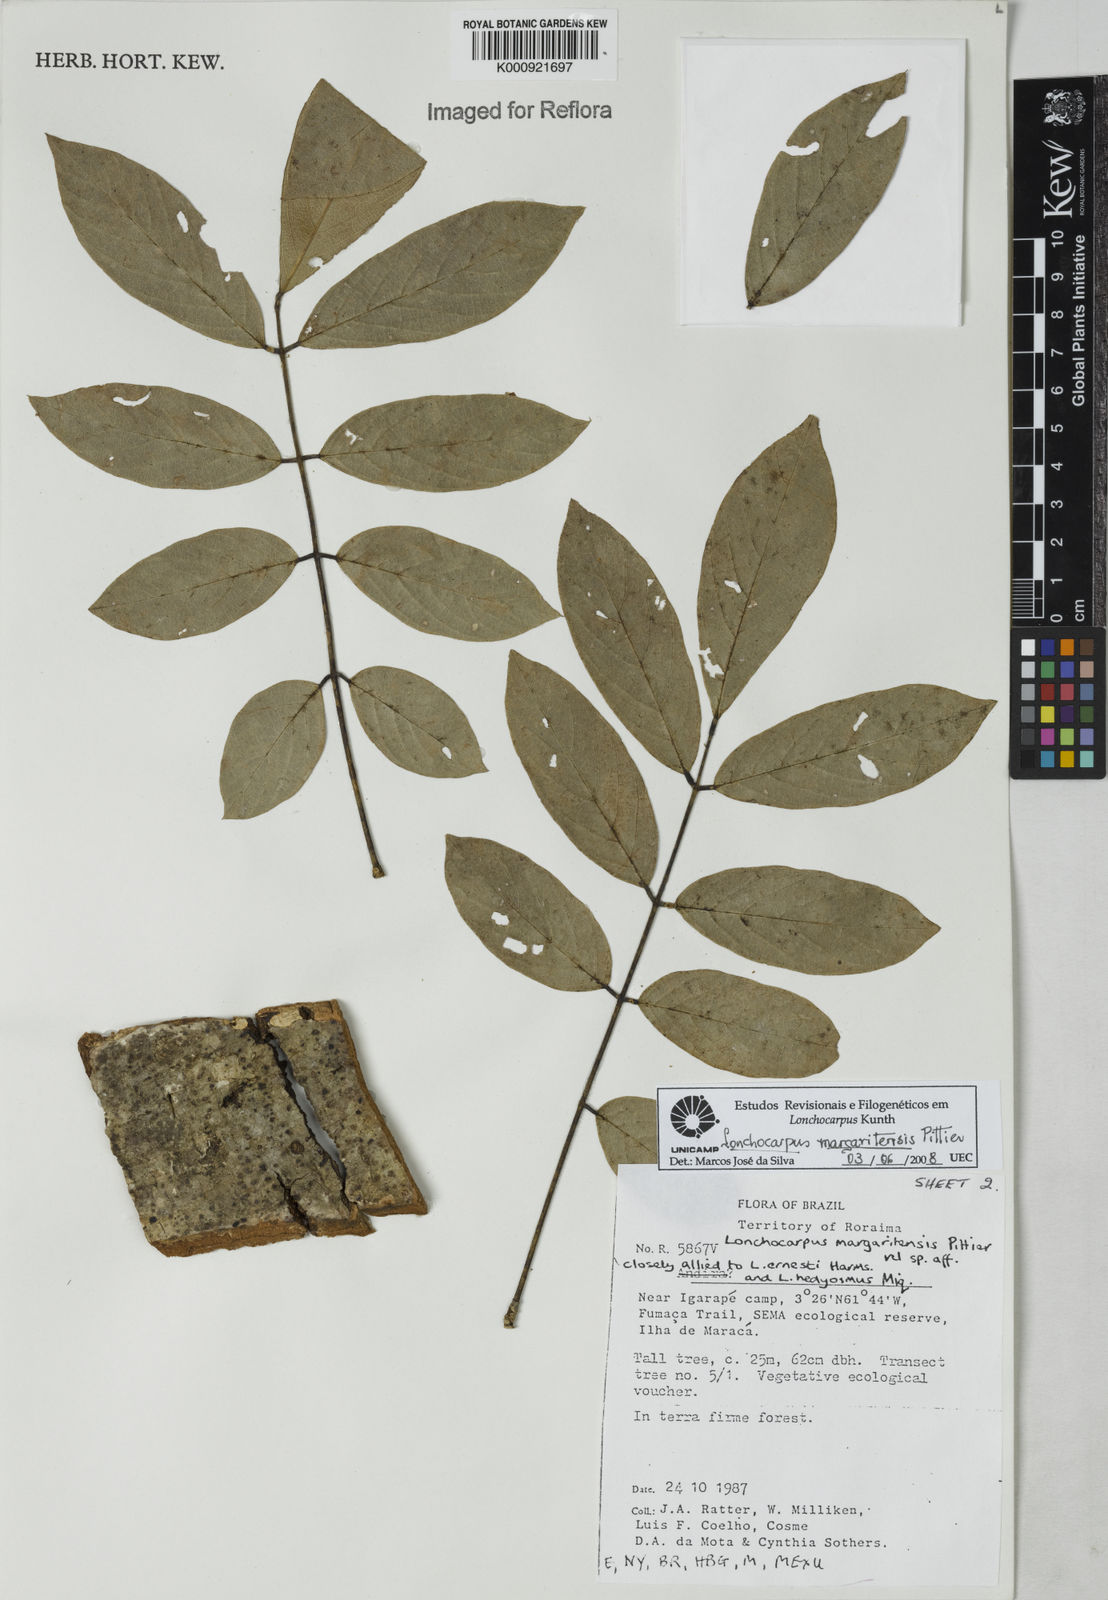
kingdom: Plantae
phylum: Tracheophyta
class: Magnoliopsida
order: Fabales
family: Fabaceae
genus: Lonchocarpus
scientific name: Lonchocarpus hedyosmus
